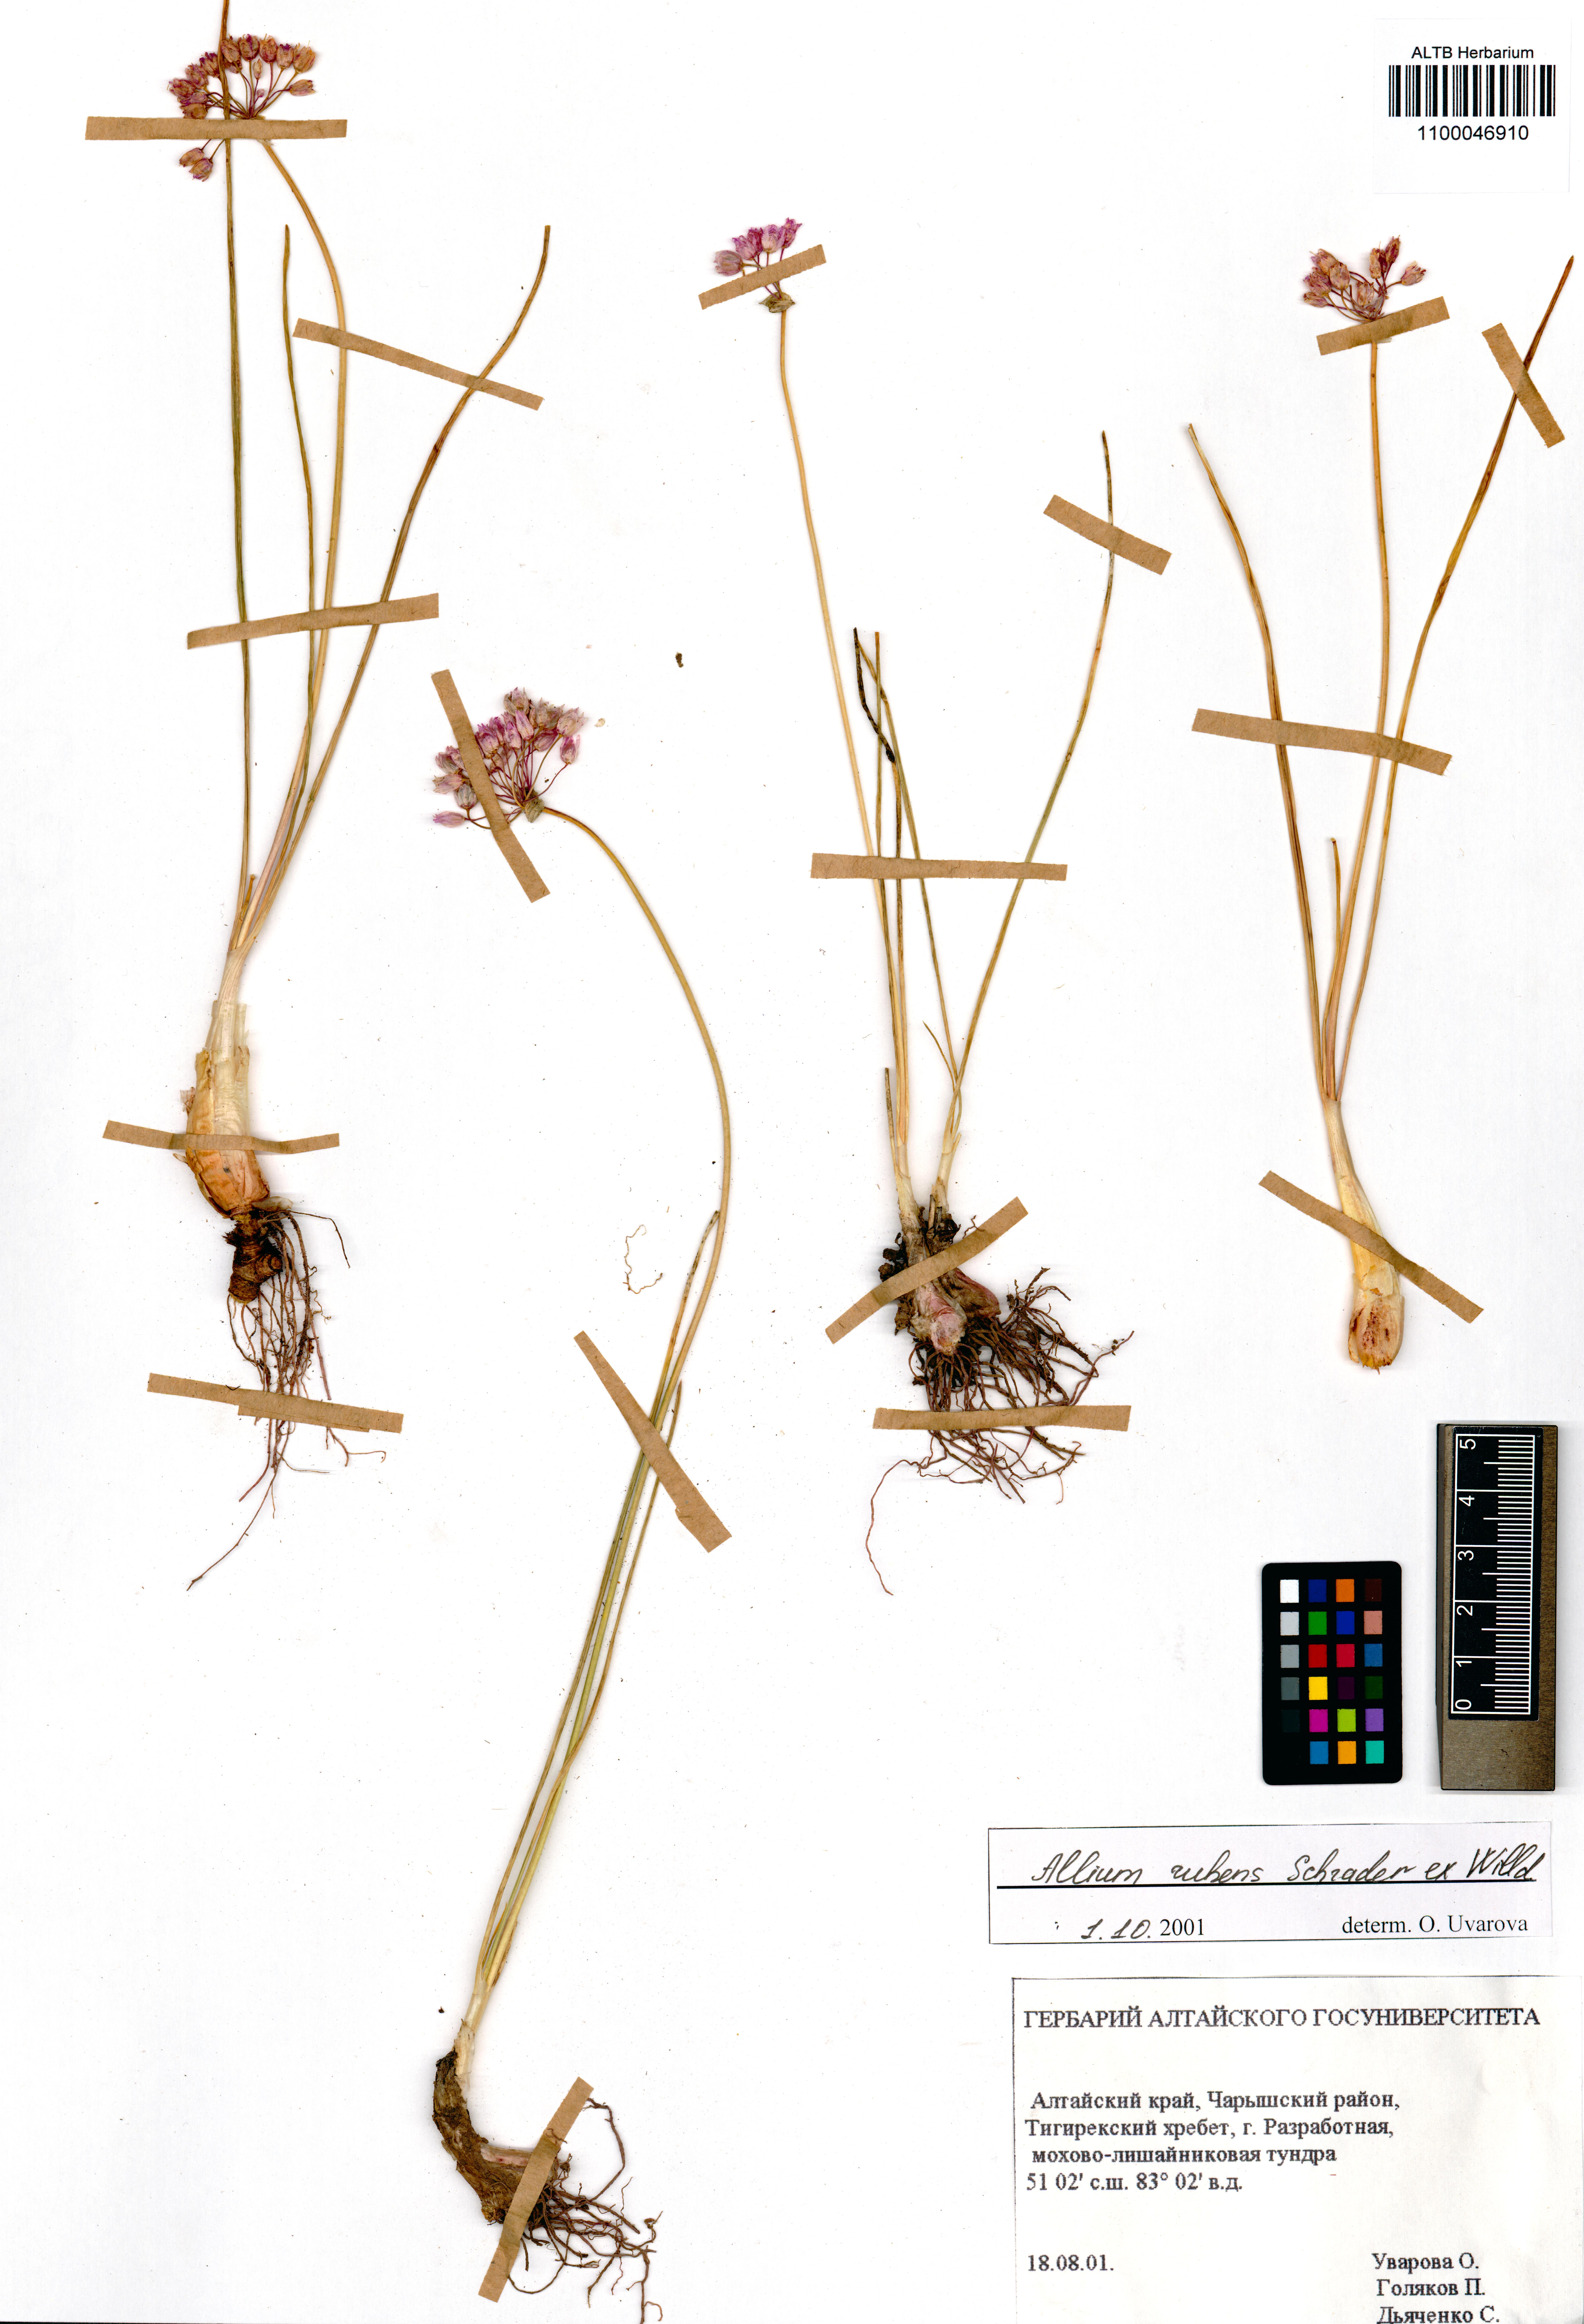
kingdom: Plantae
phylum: Tracheophyta
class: Liliopsida
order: Asparagales
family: Amaryllidaceae
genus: Allium
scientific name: Allium rubens
